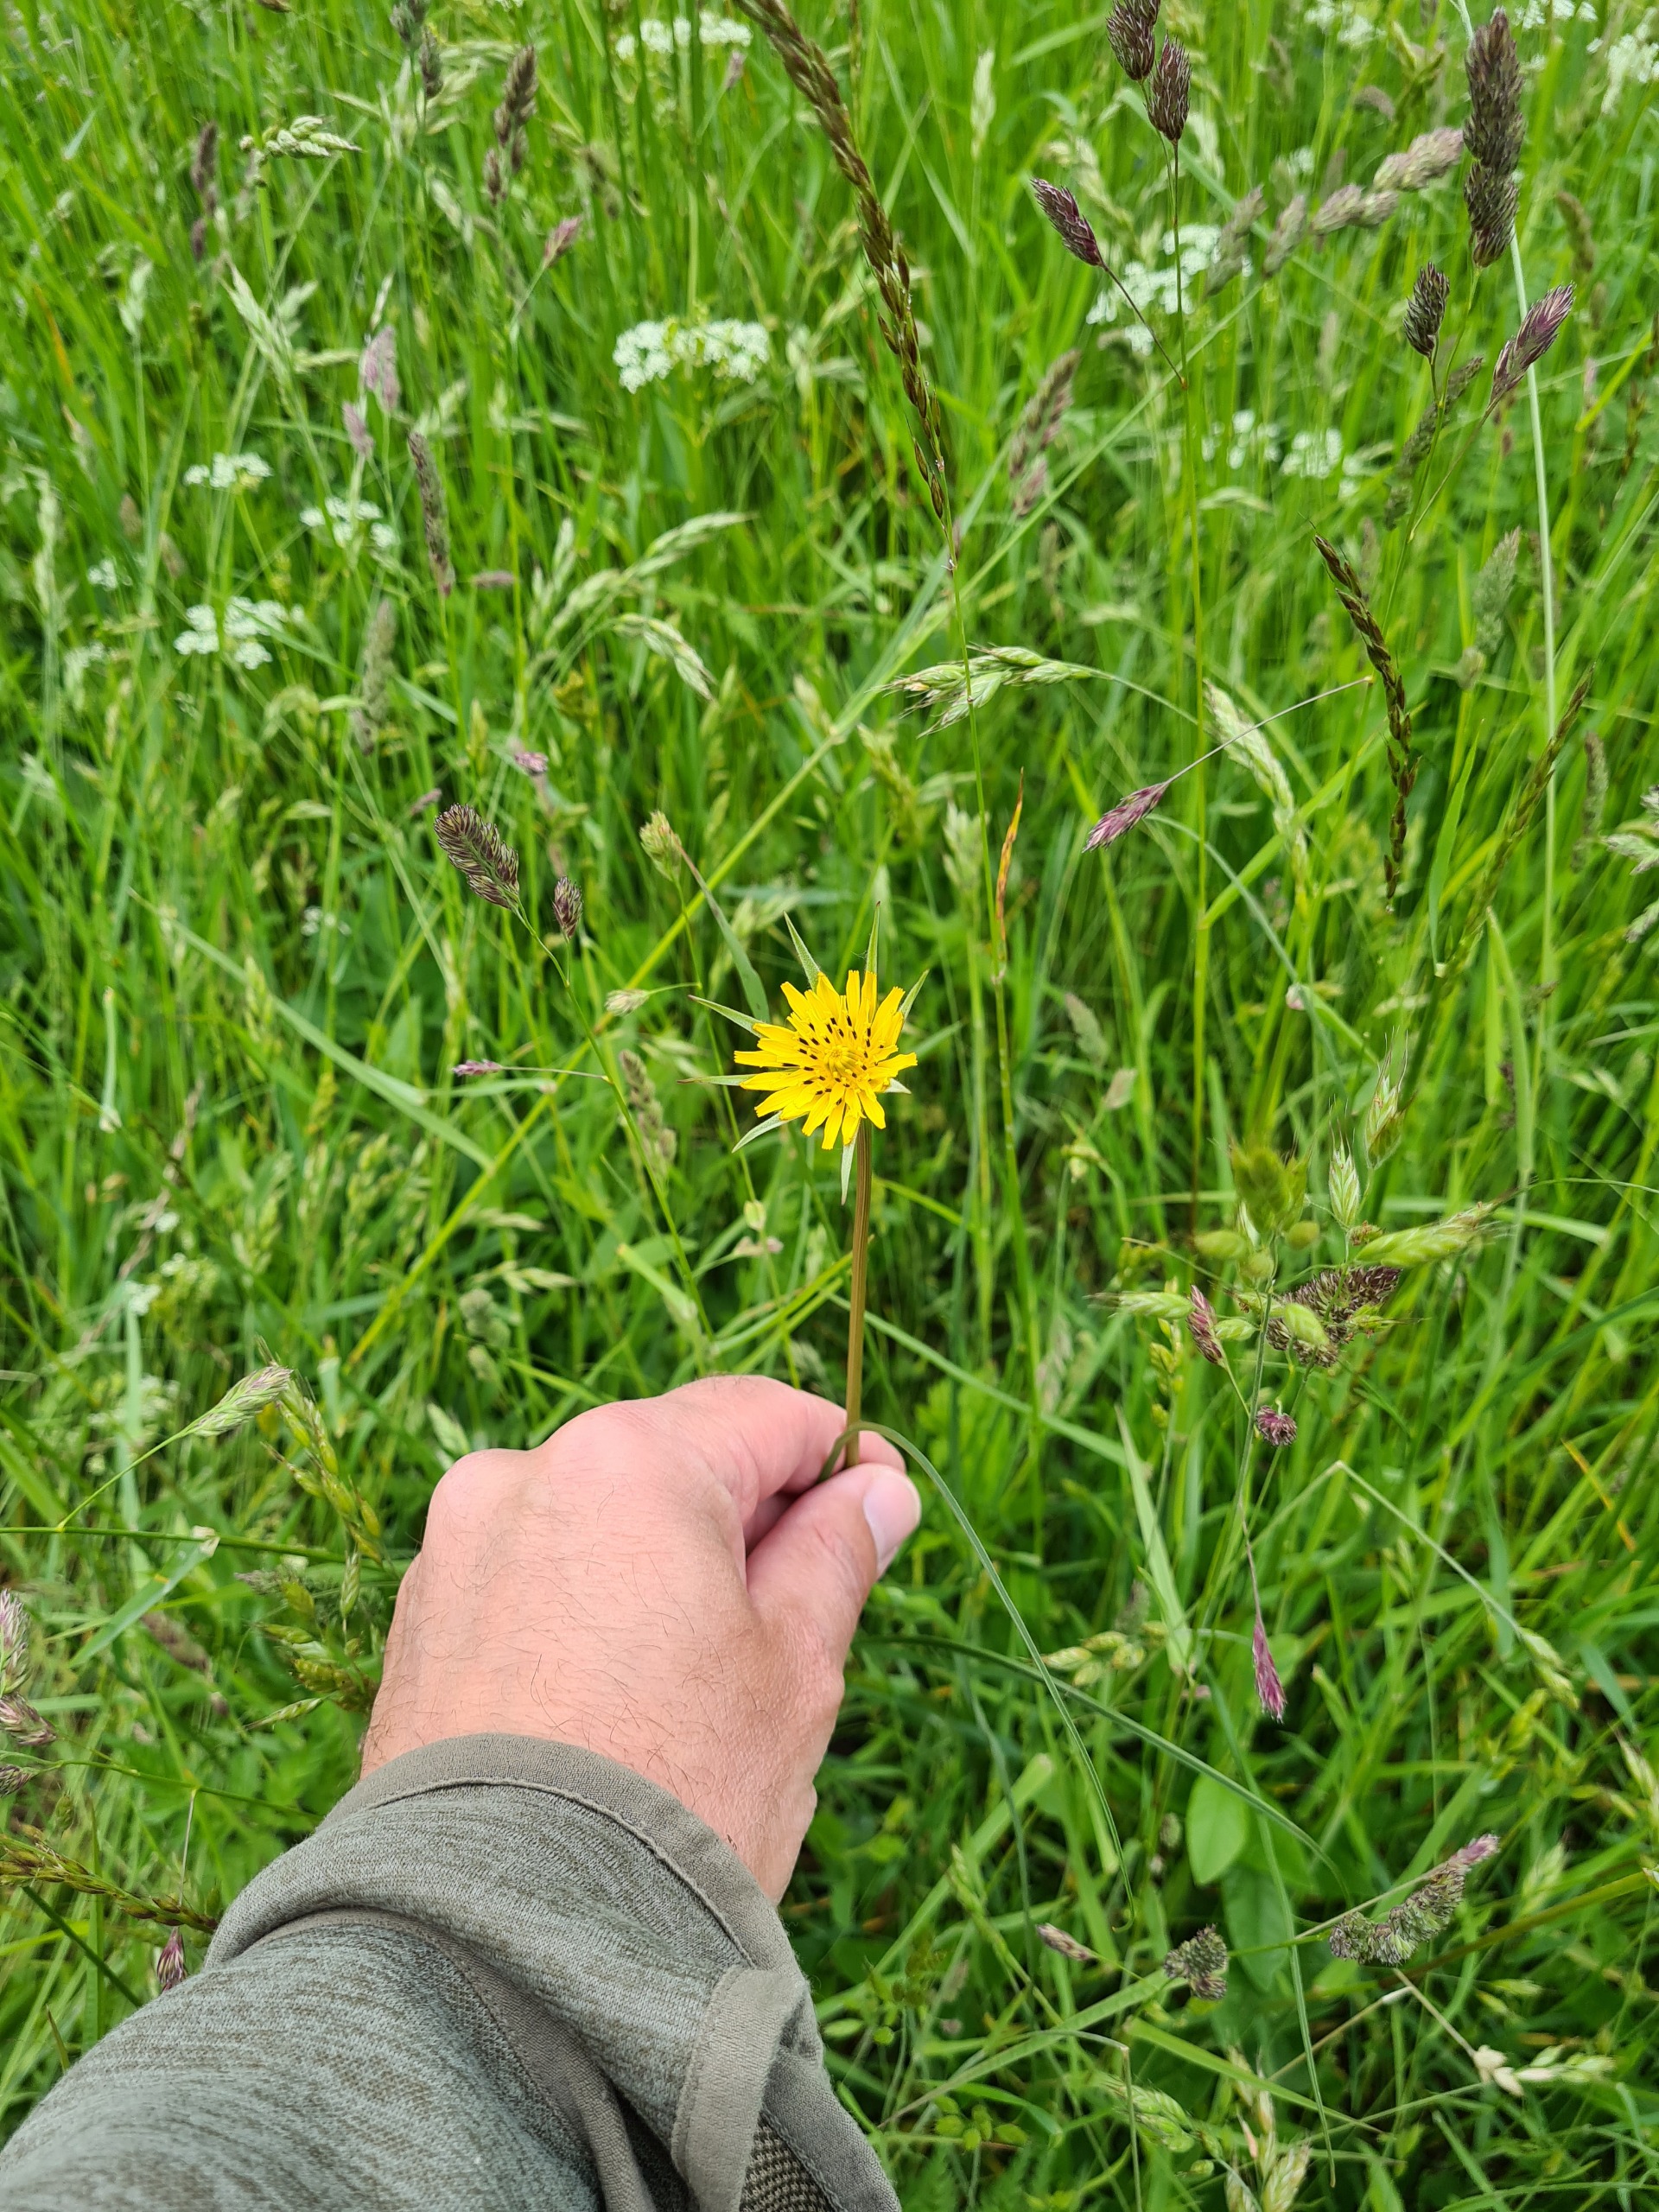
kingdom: Plantae
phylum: Tracheophyta
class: Magnoliopsida
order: Asterales
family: Asteraceae
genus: Tragopogon
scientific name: Tragopogon minor
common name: Småkronet gedeskæg
